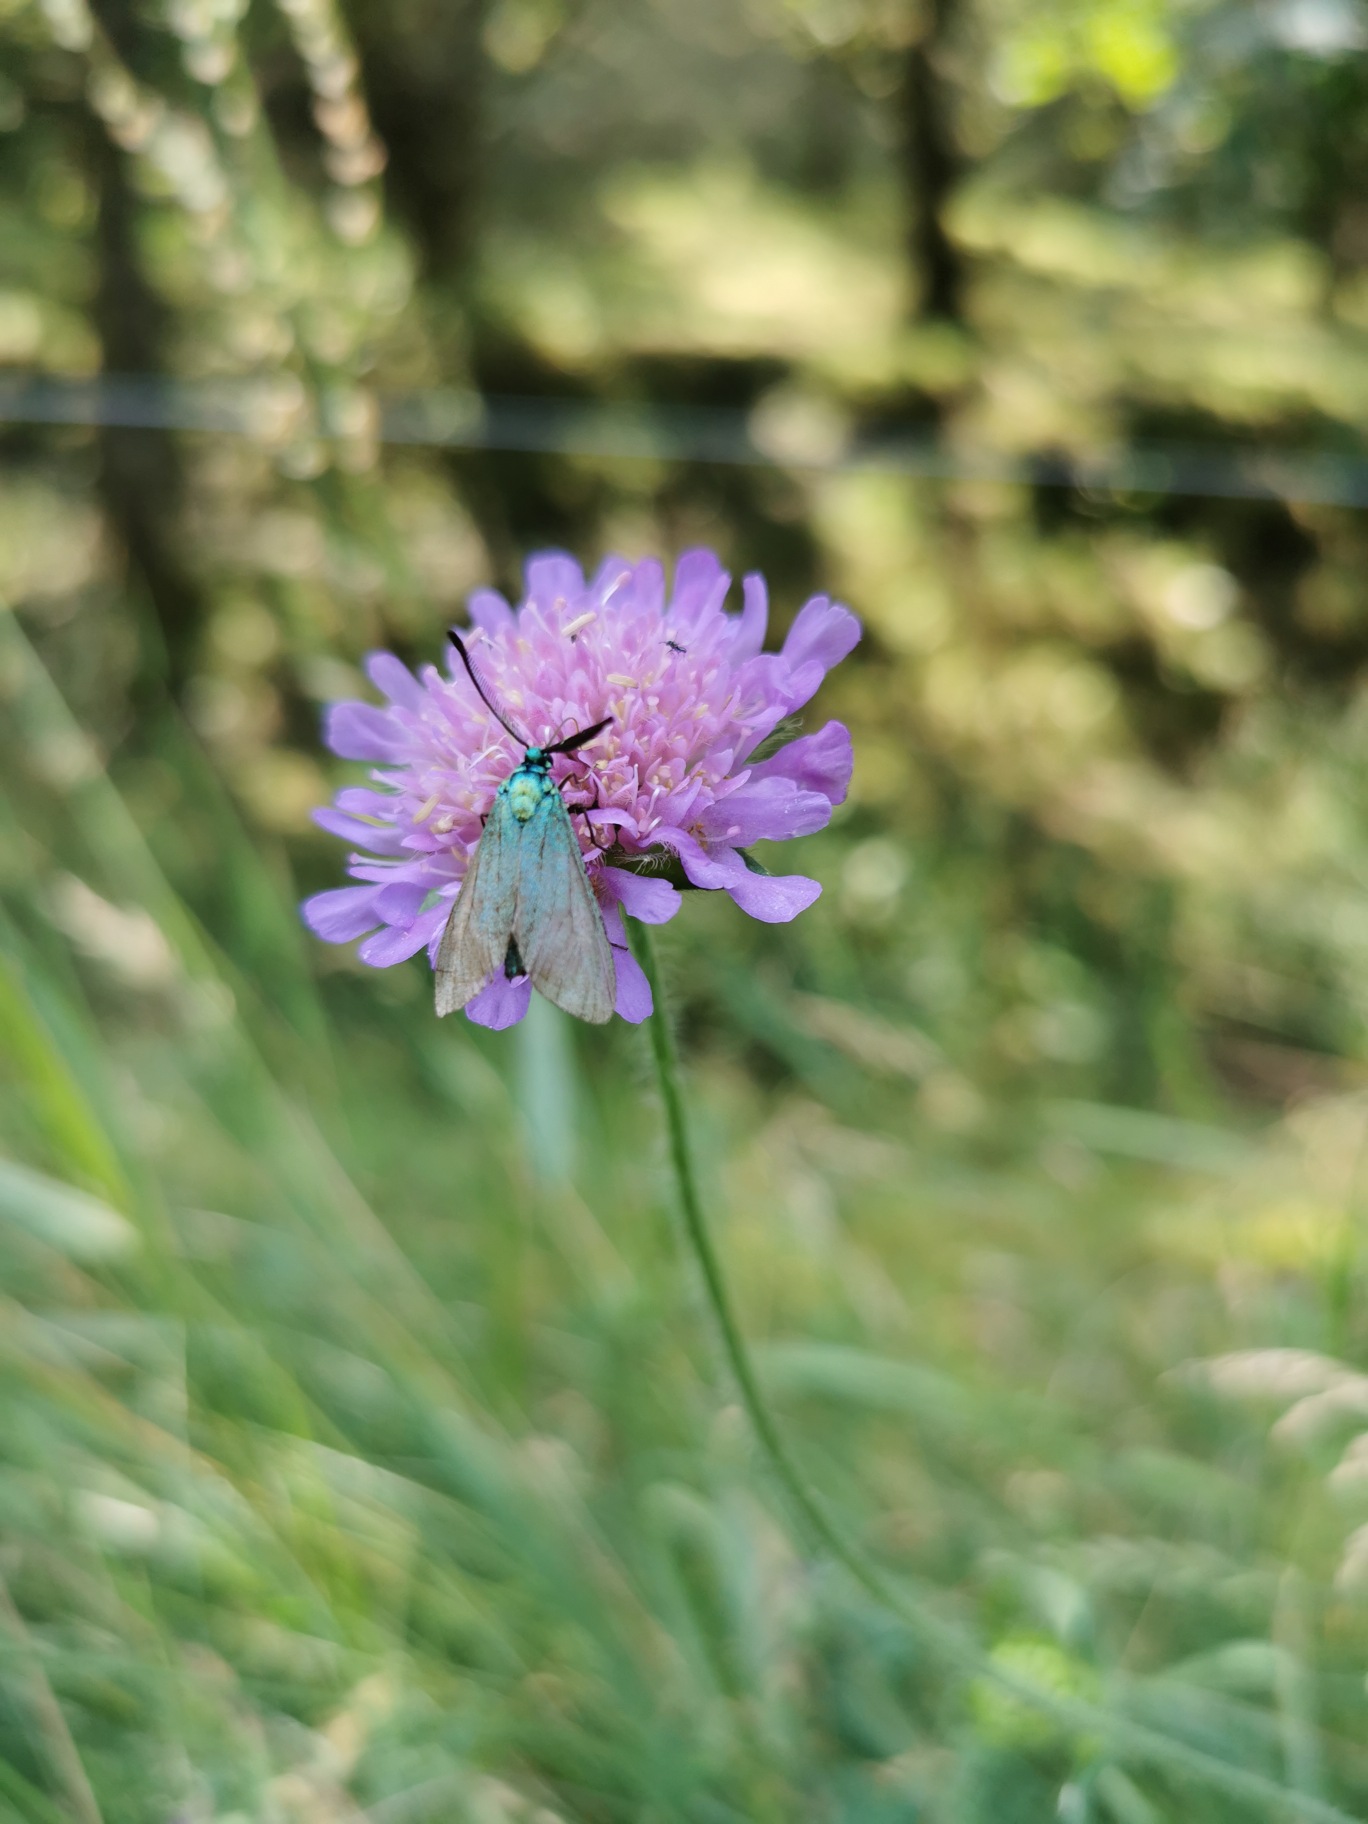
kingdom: Animalia
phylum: Arthropoda
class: Insecta
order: Lepidoptera
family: Zygaenidae
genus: Adscita
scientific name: Adscita statices
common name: Metalvinge
